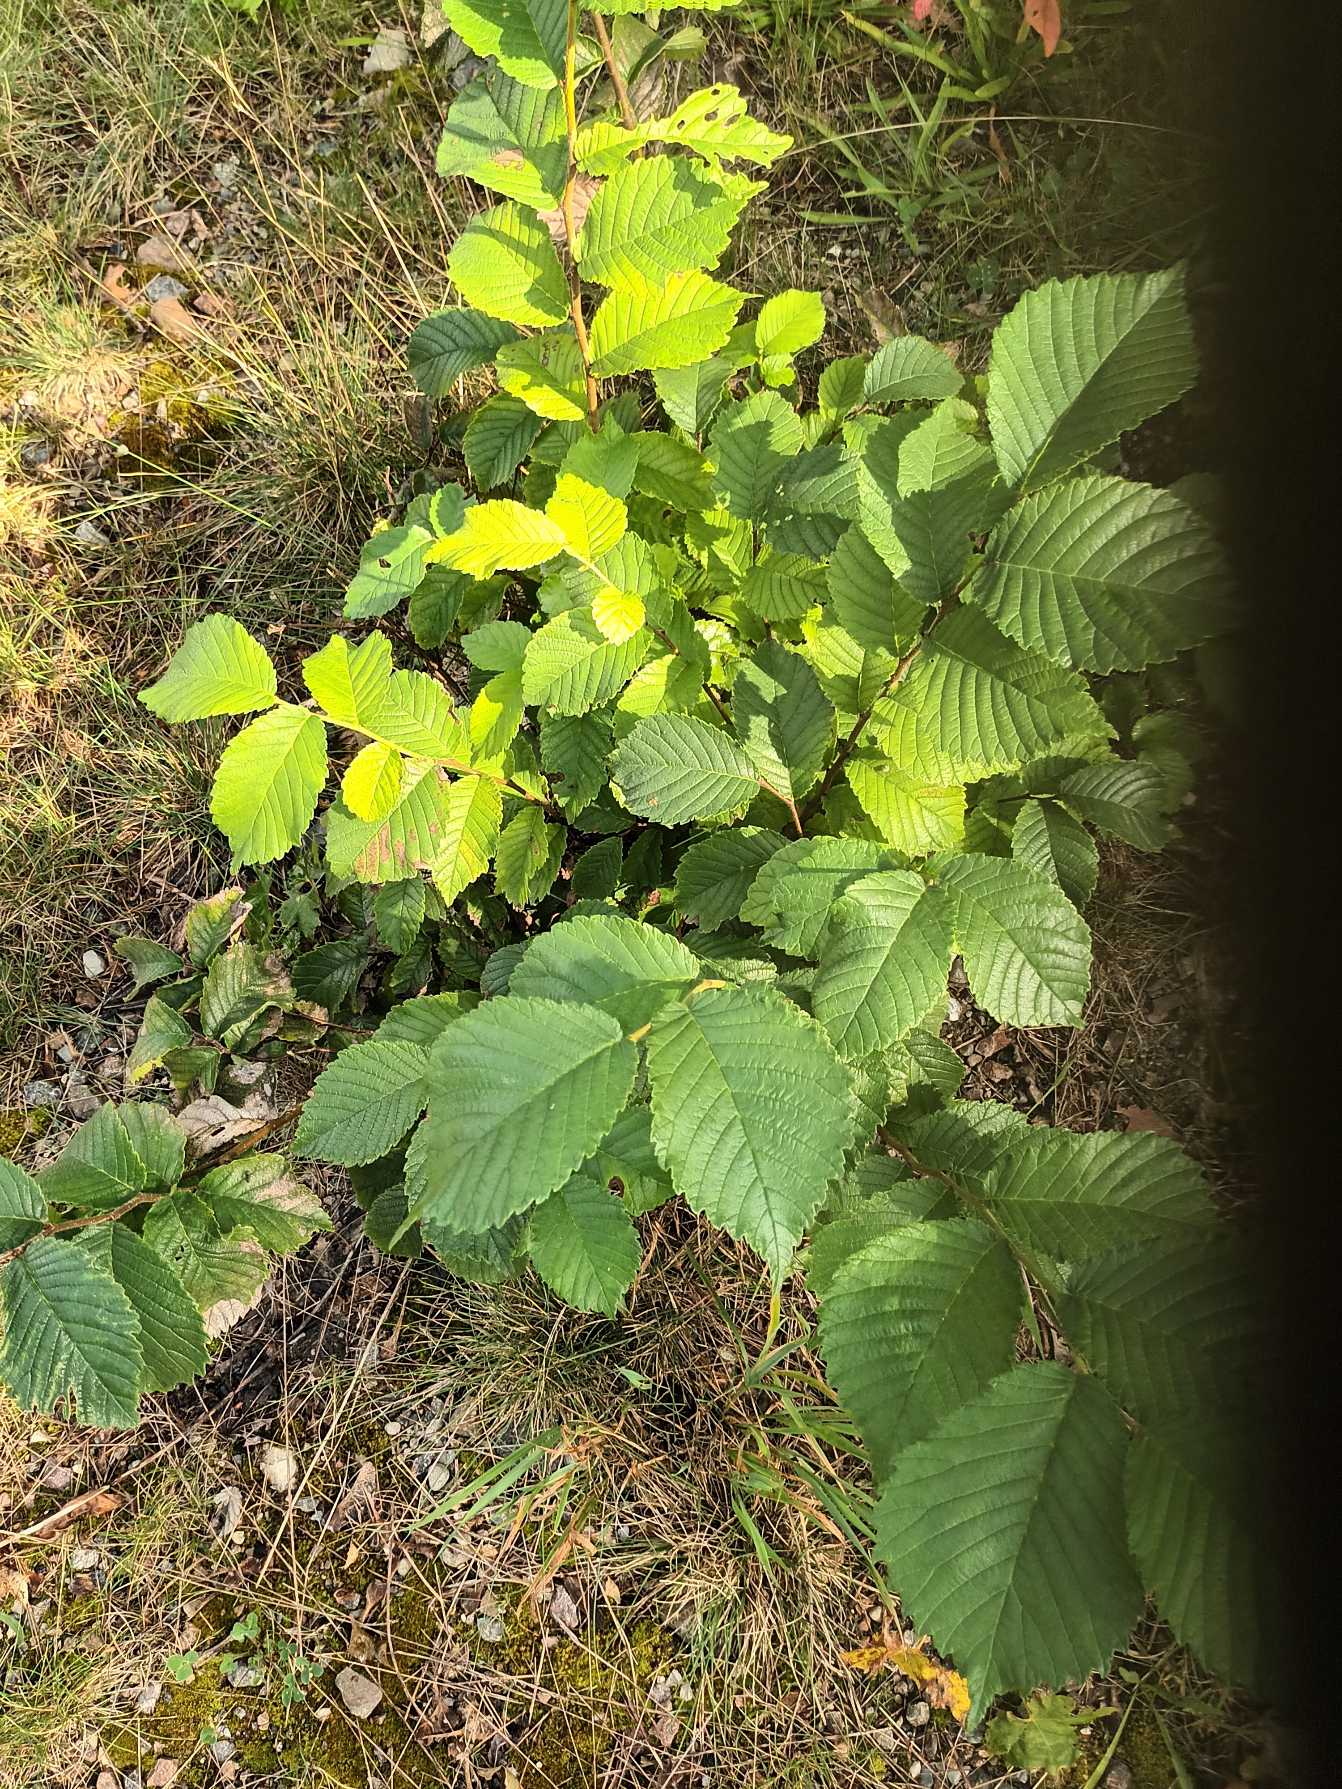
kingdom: Plantae
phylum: Tracheophyta
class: Magnoliopsida
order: Rosales
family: Ulmaceae
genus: Ulmus
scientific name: Ulmus glabra
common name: Skov-elm/storbladet elm
